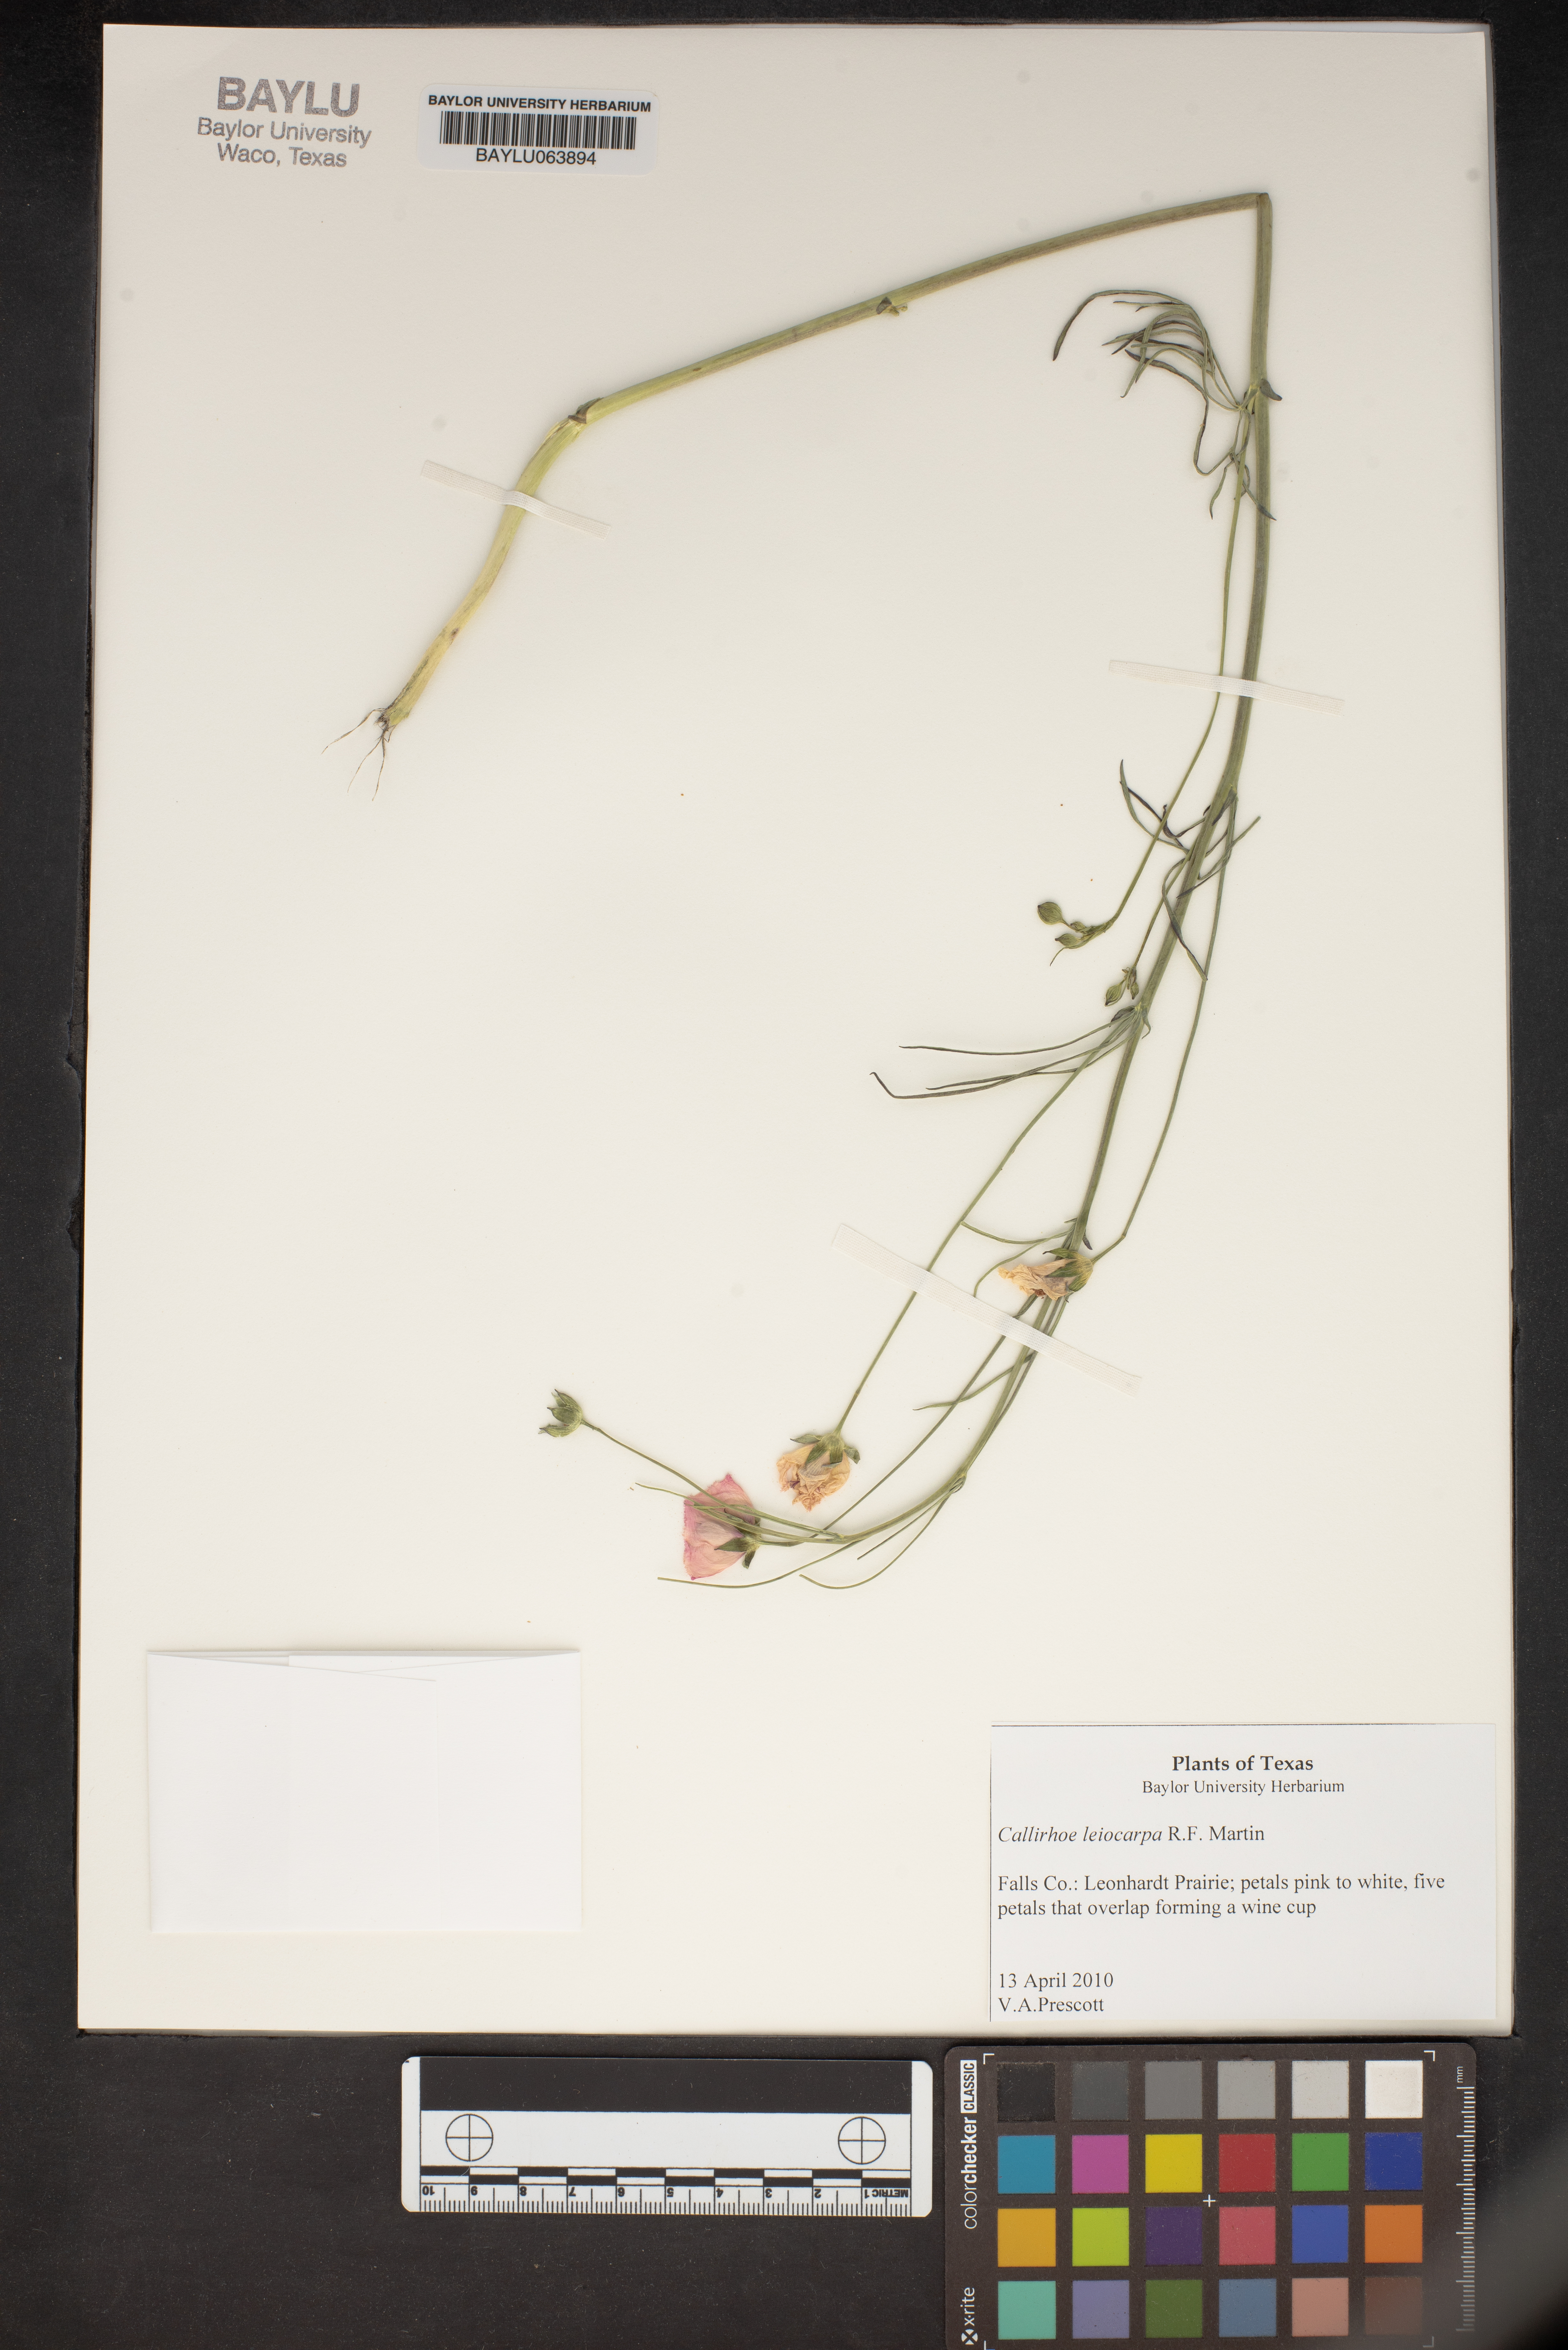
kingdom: Plantae
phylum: Tracheophyta
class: Magnoliopsida
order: Malvales
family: Malvaceae
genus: Callirhoe
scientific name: Callirhoe leiocarpa
